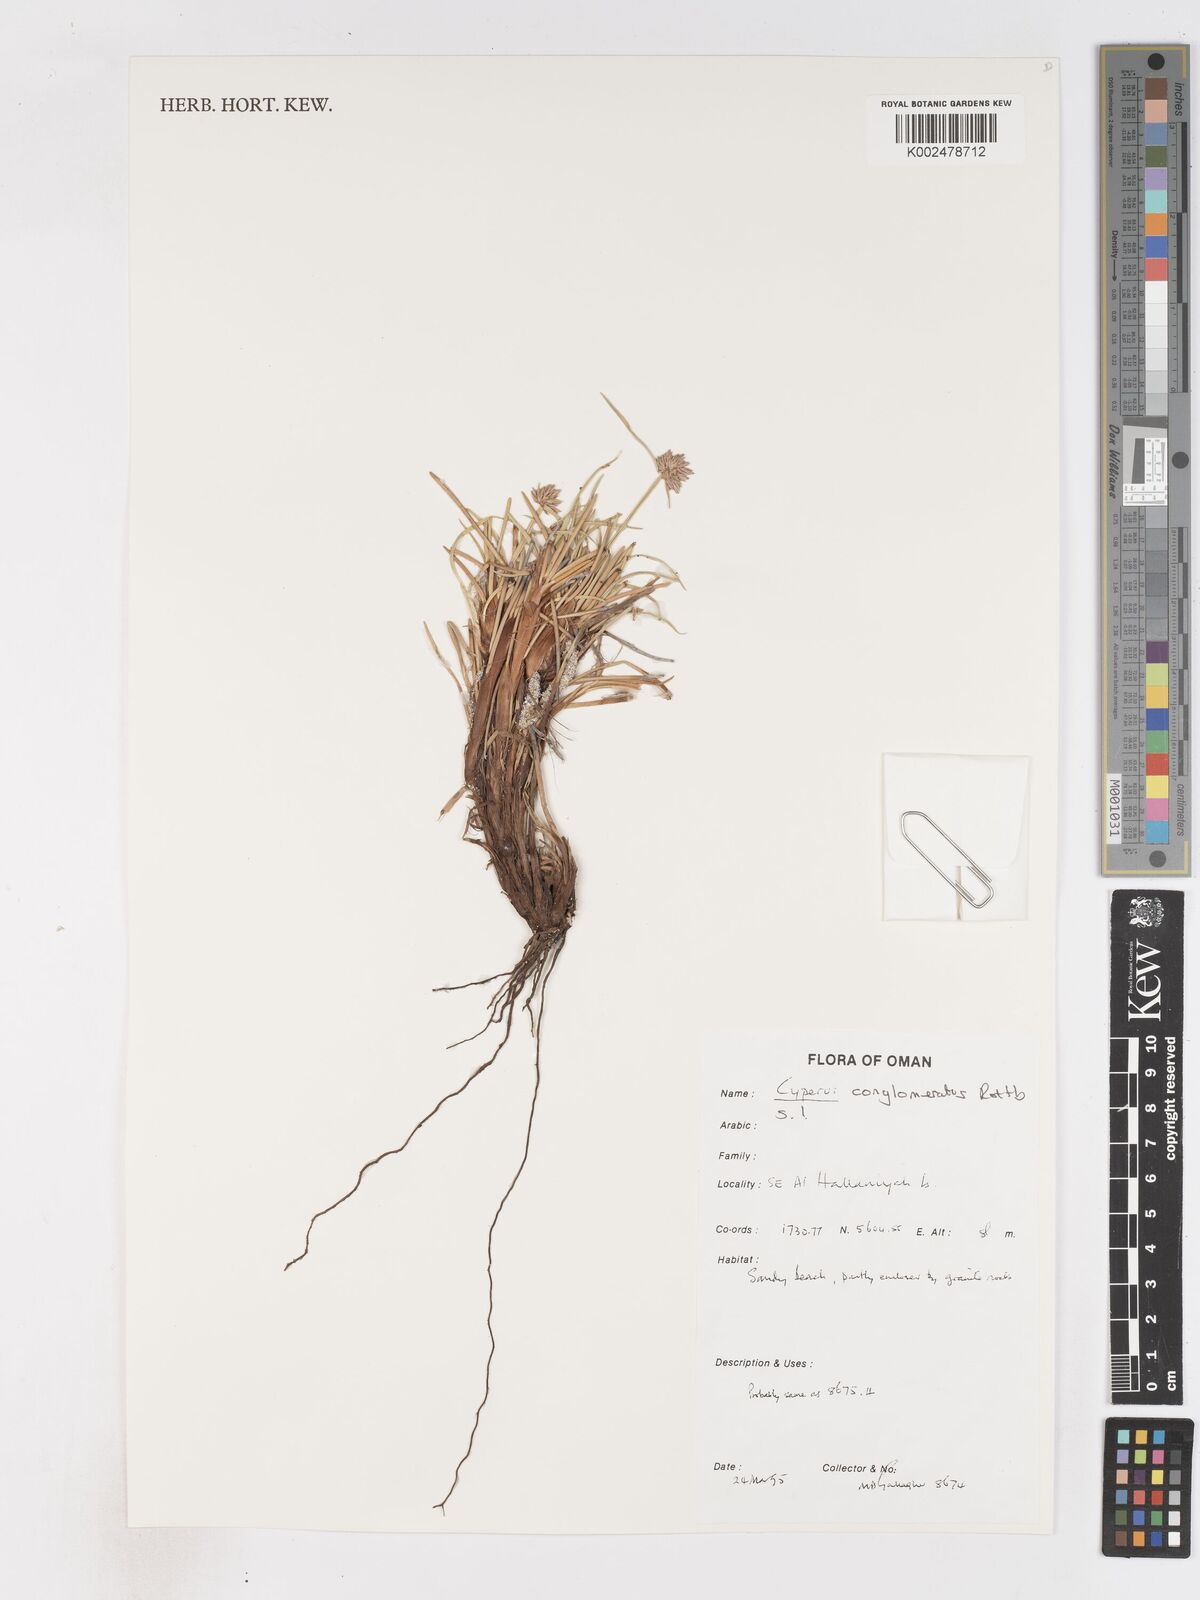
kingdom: Plantae
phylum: Tracheophyta
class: Liliopsida
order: Poales
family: Cyperaceae
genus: Cyperus
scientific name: Cyperus conglomeratus
